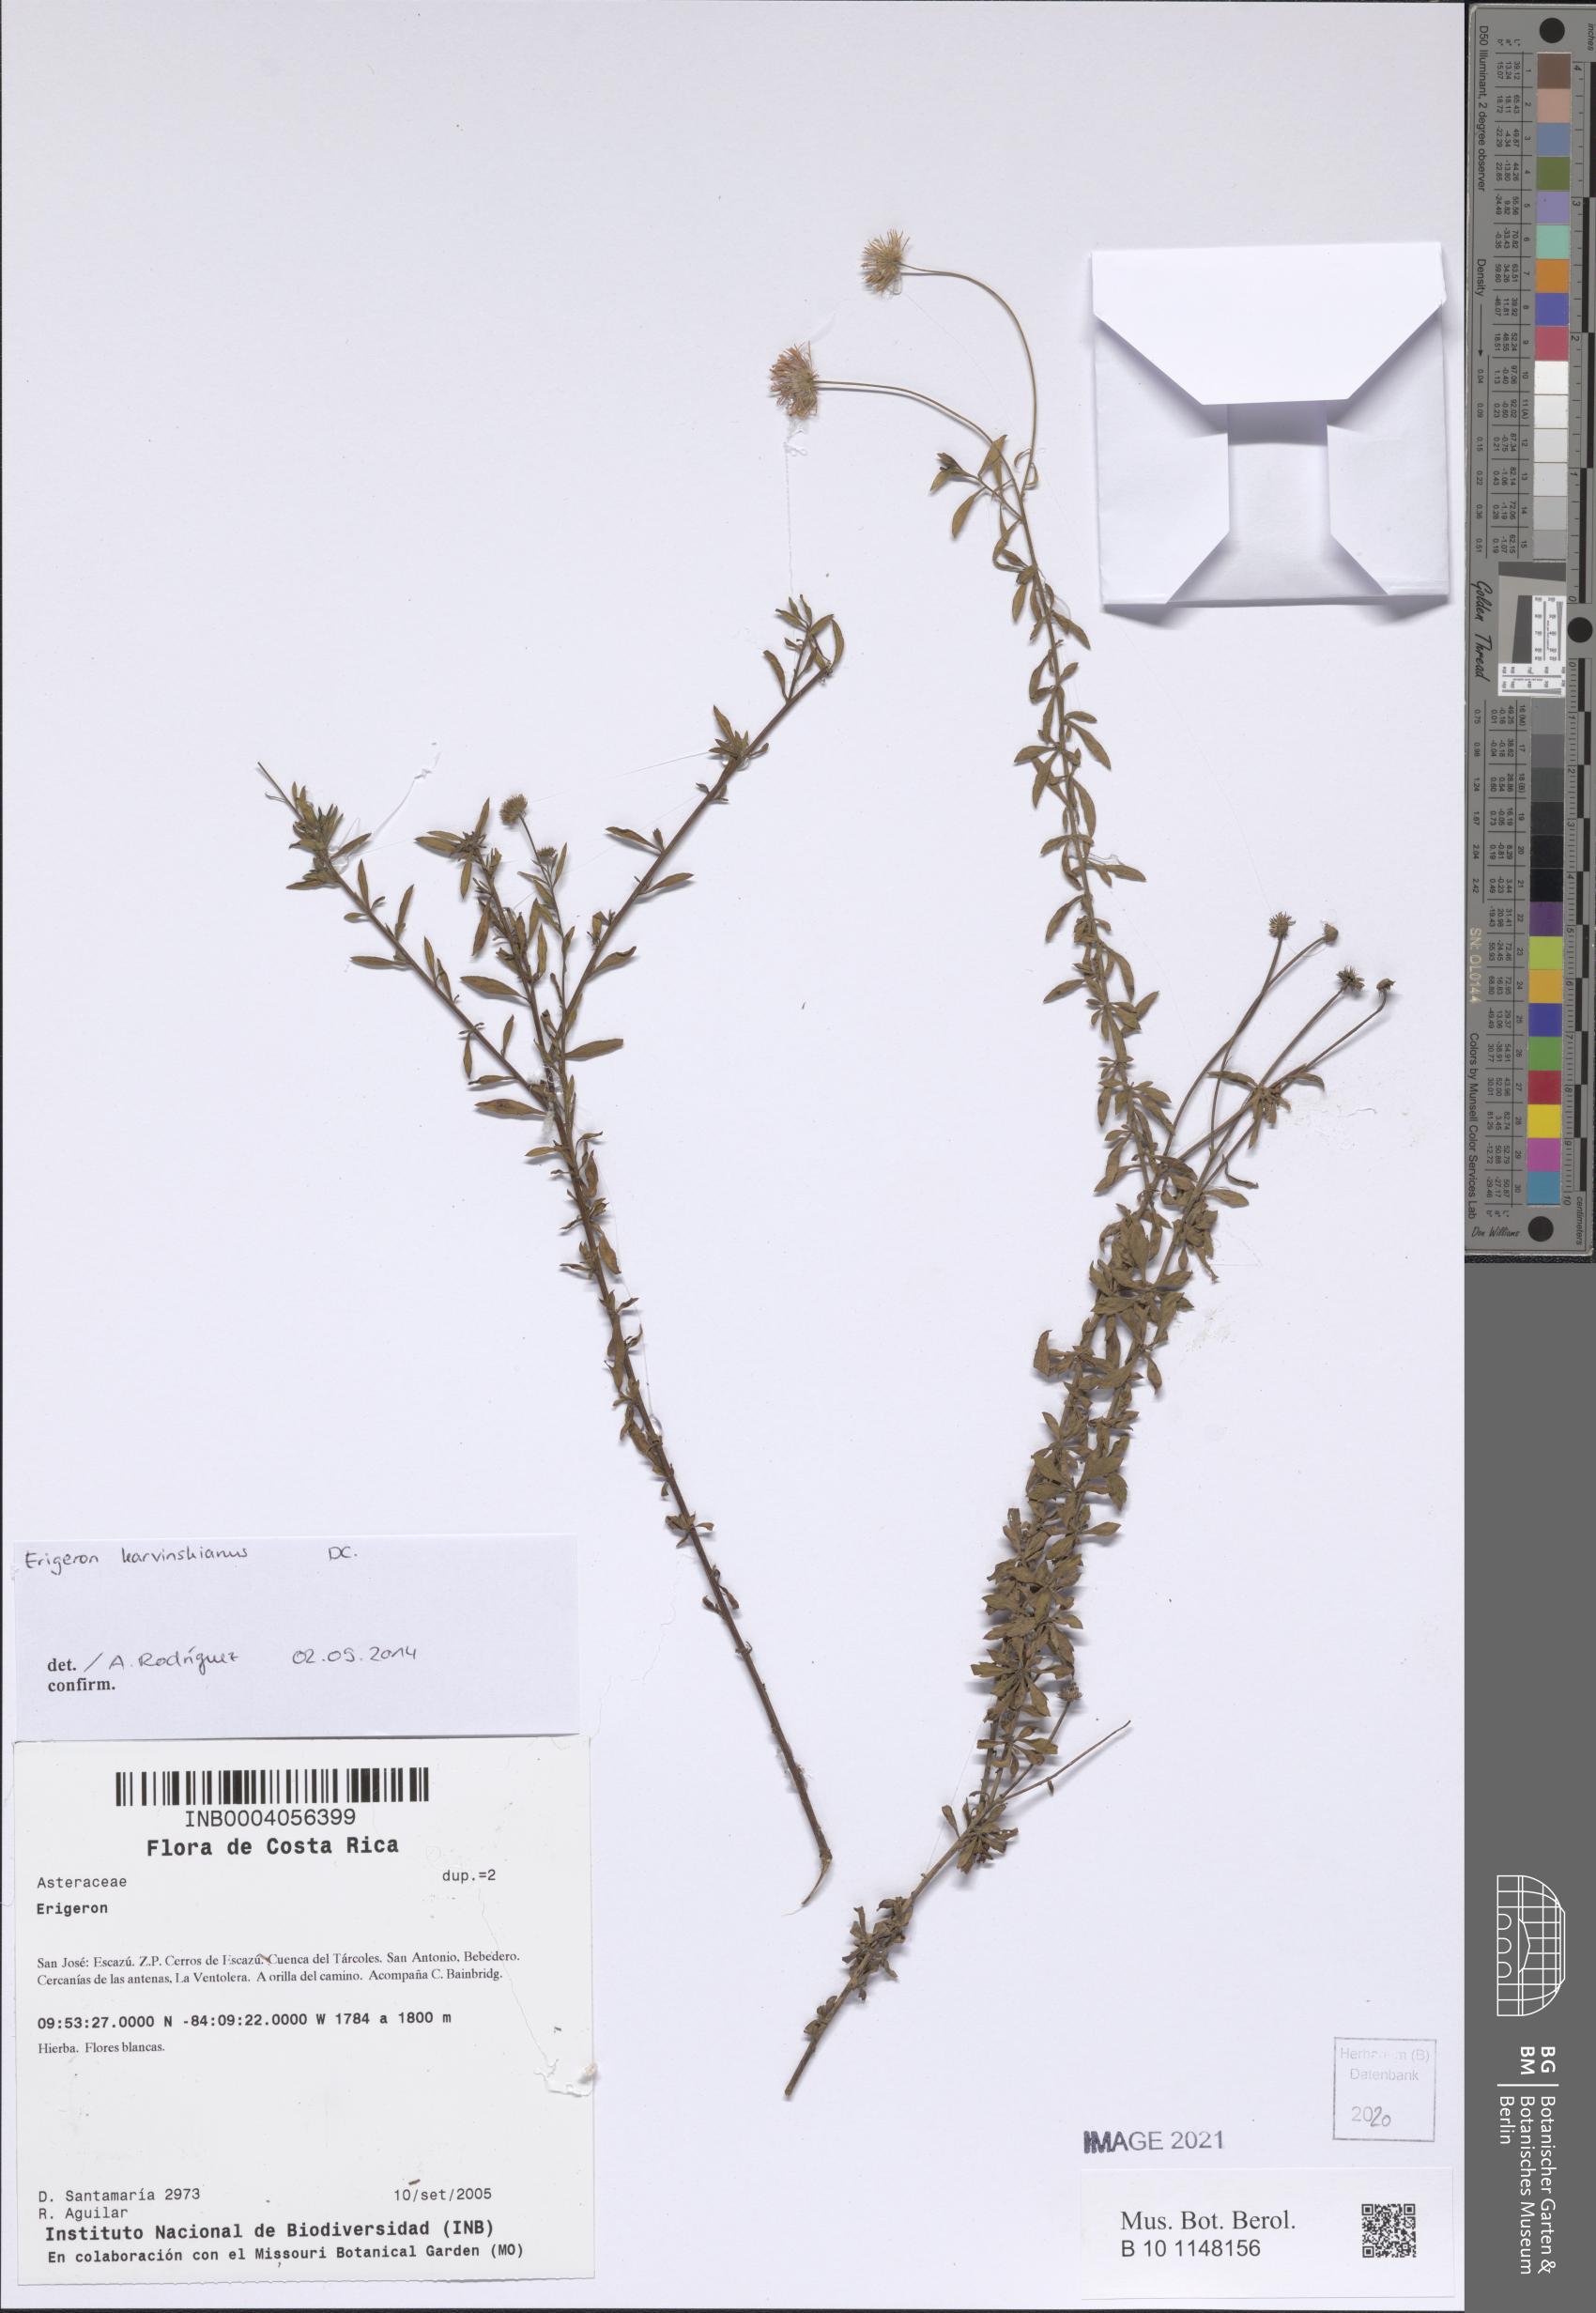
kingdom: Plantae
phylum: Tracheophyta
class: Magnoliopsida
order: Asterales
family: Asteraceae
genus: Erigeron
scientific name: Erigeron karvinskianus
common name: Mexican fleabane
